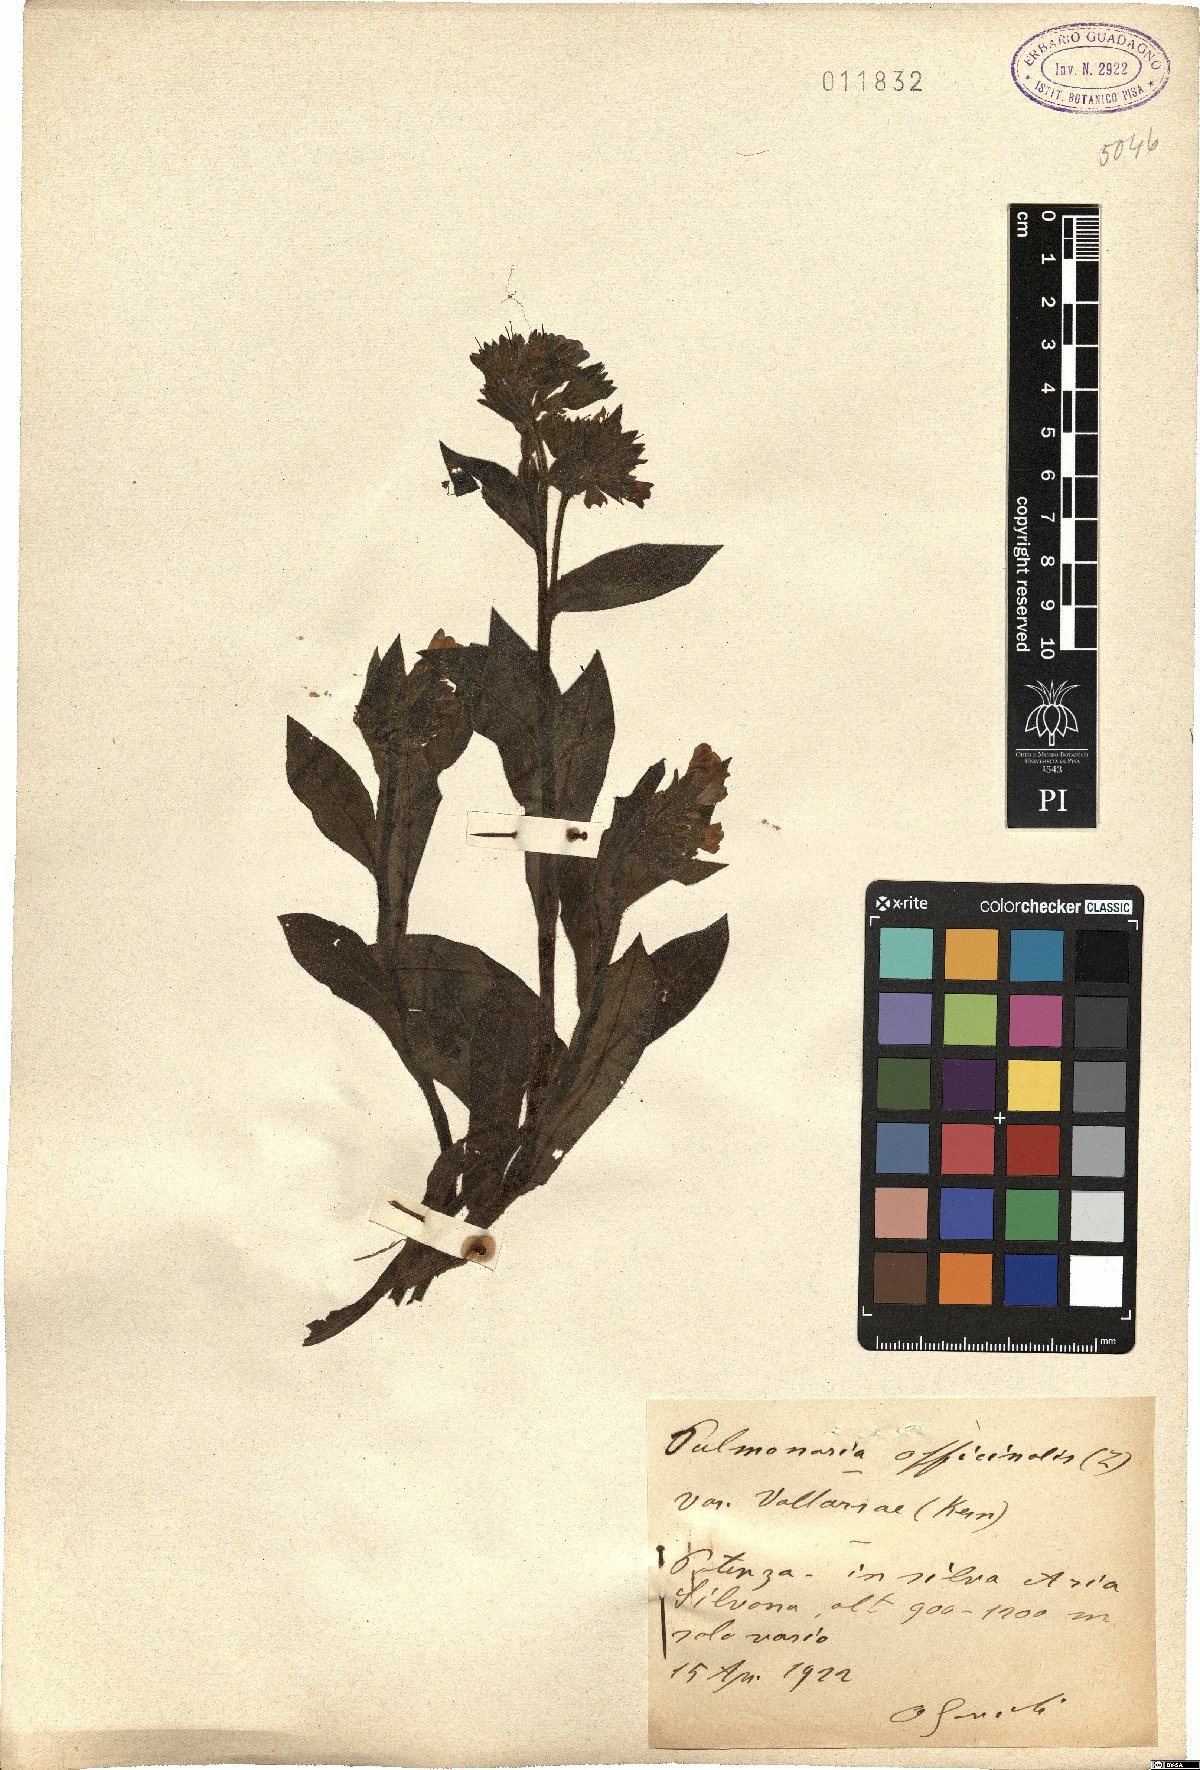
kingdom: Plantae
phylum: Tracheophyta
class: Magnoliopsida
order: Boraginales
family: Boraginaceae
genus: Pulmonaria
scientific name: Pulmonaria officinalis
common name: Lungwort
